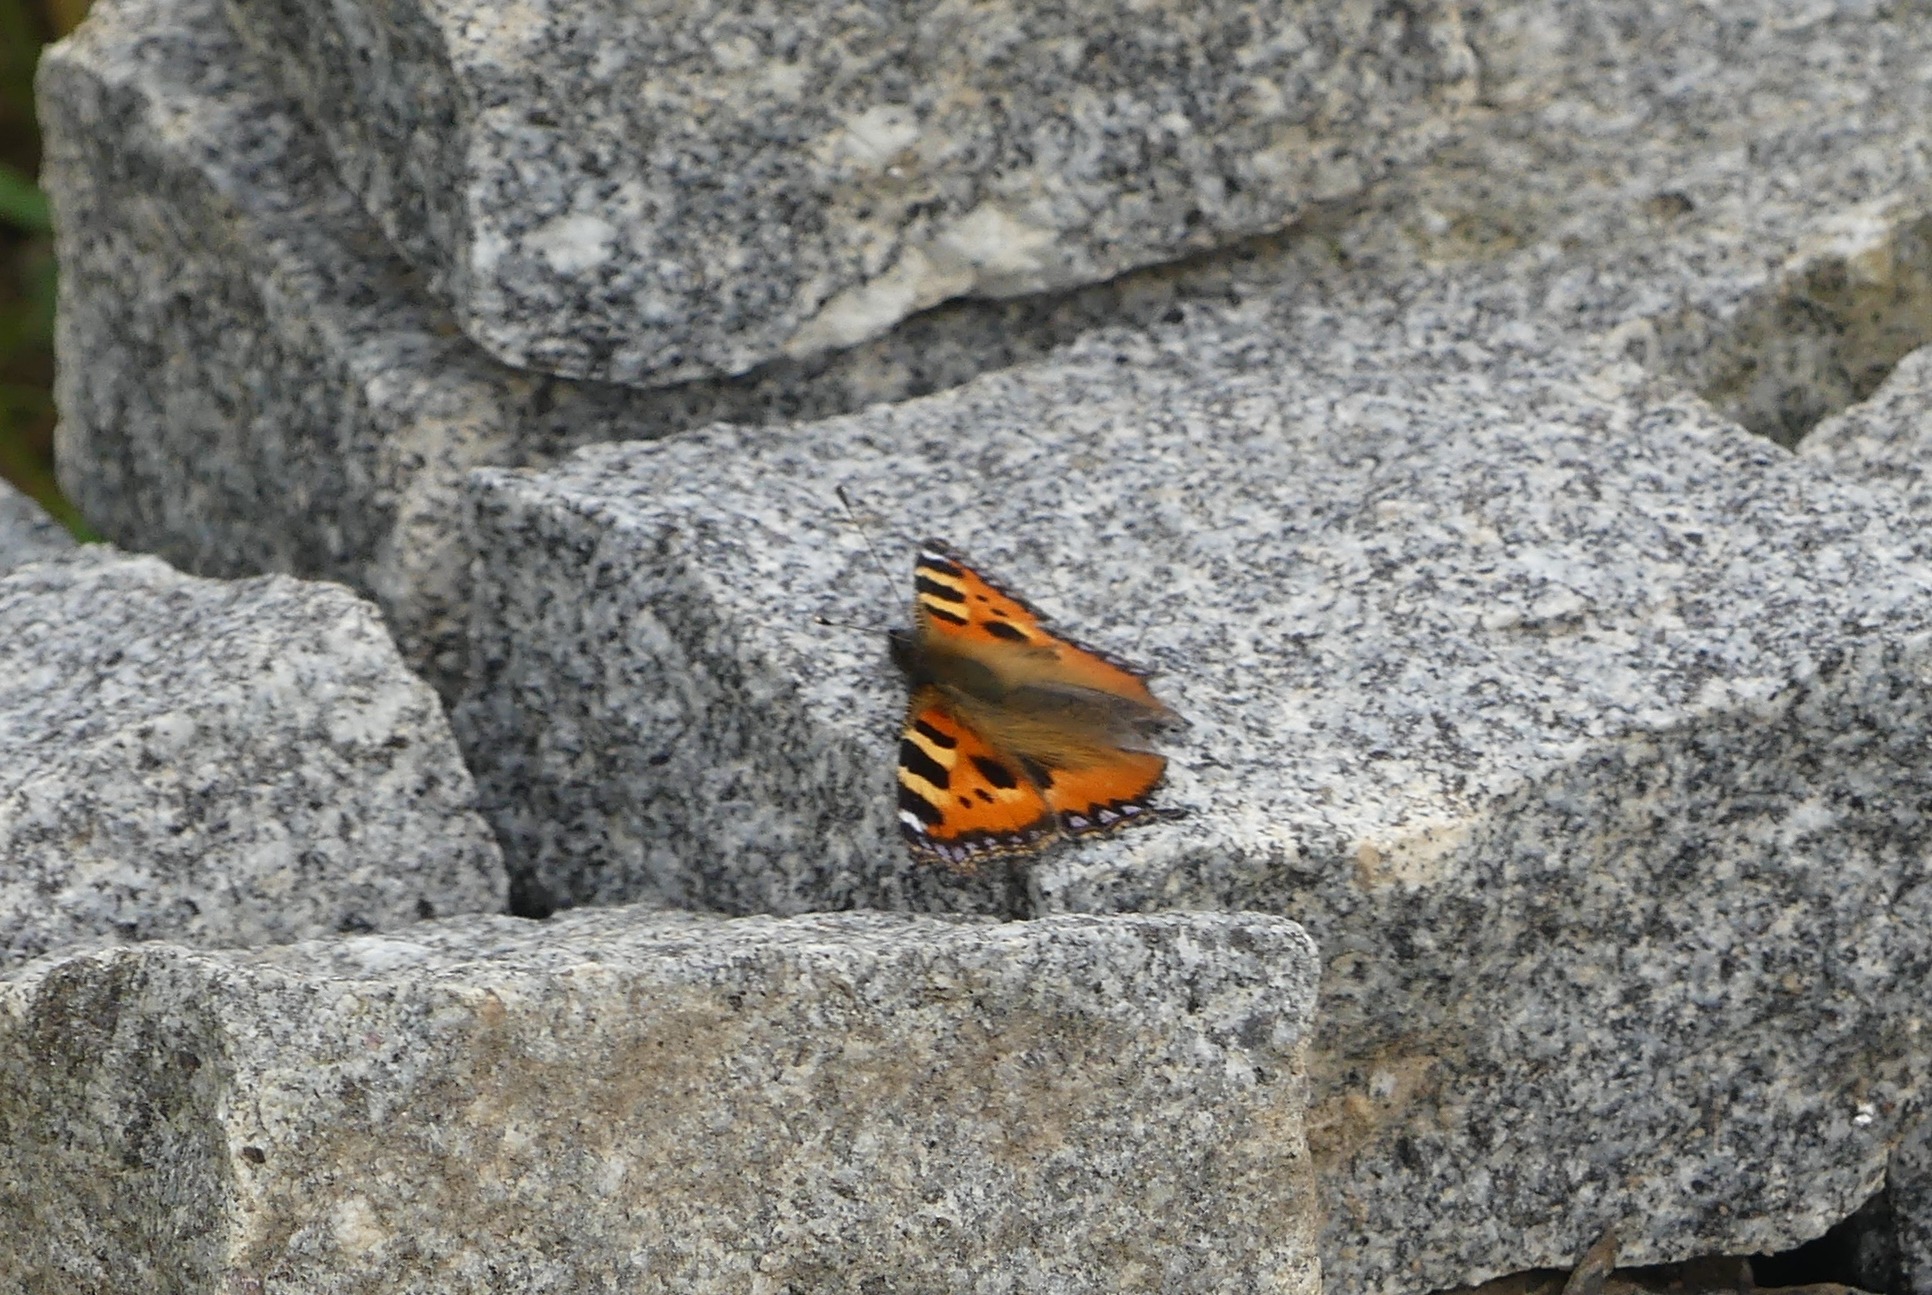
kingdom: Animalia
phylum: Arthropoda
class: Insecta
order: Lepidoptera
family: Nymphalidae
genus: Aglais
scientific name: Aglais urticae
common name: Nældens takvinge
